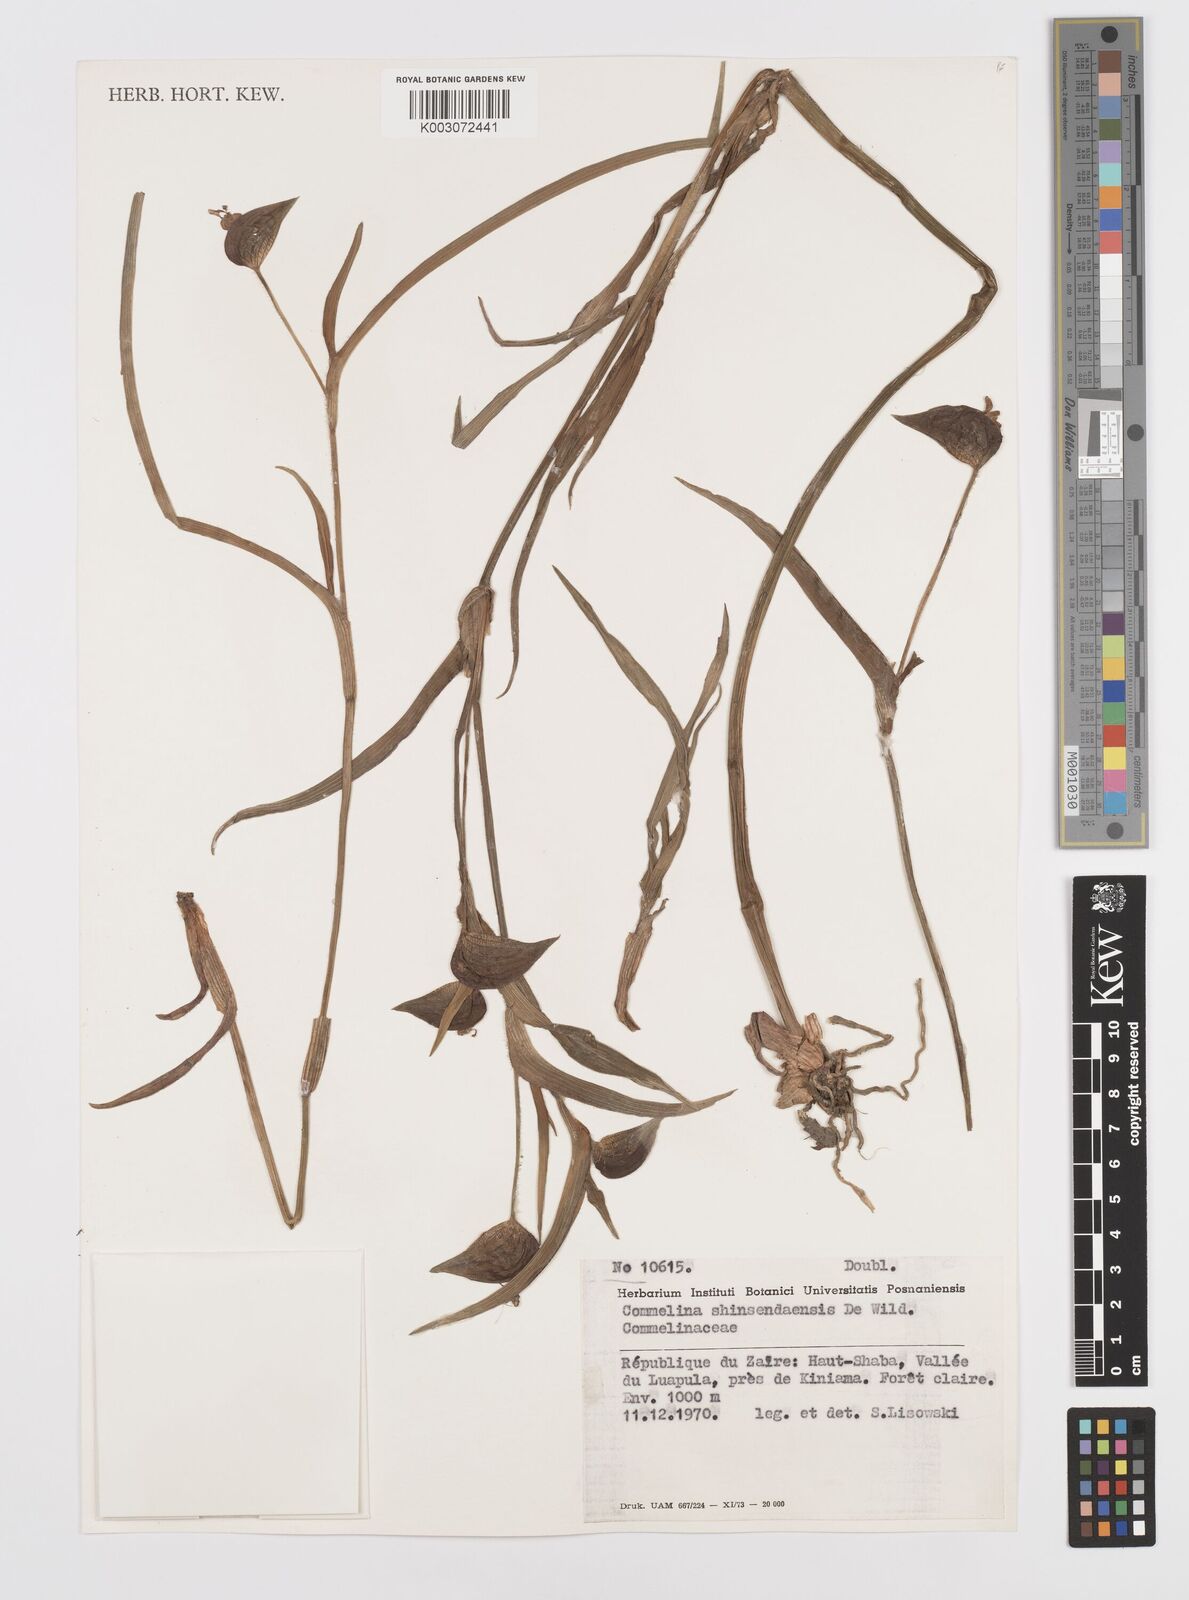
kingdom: Plantae
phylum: Tracheophyta
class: Liliopsida
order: Commelinales
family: Commelinaceae
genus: Commelina
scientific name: Commelina shinsendaensis
